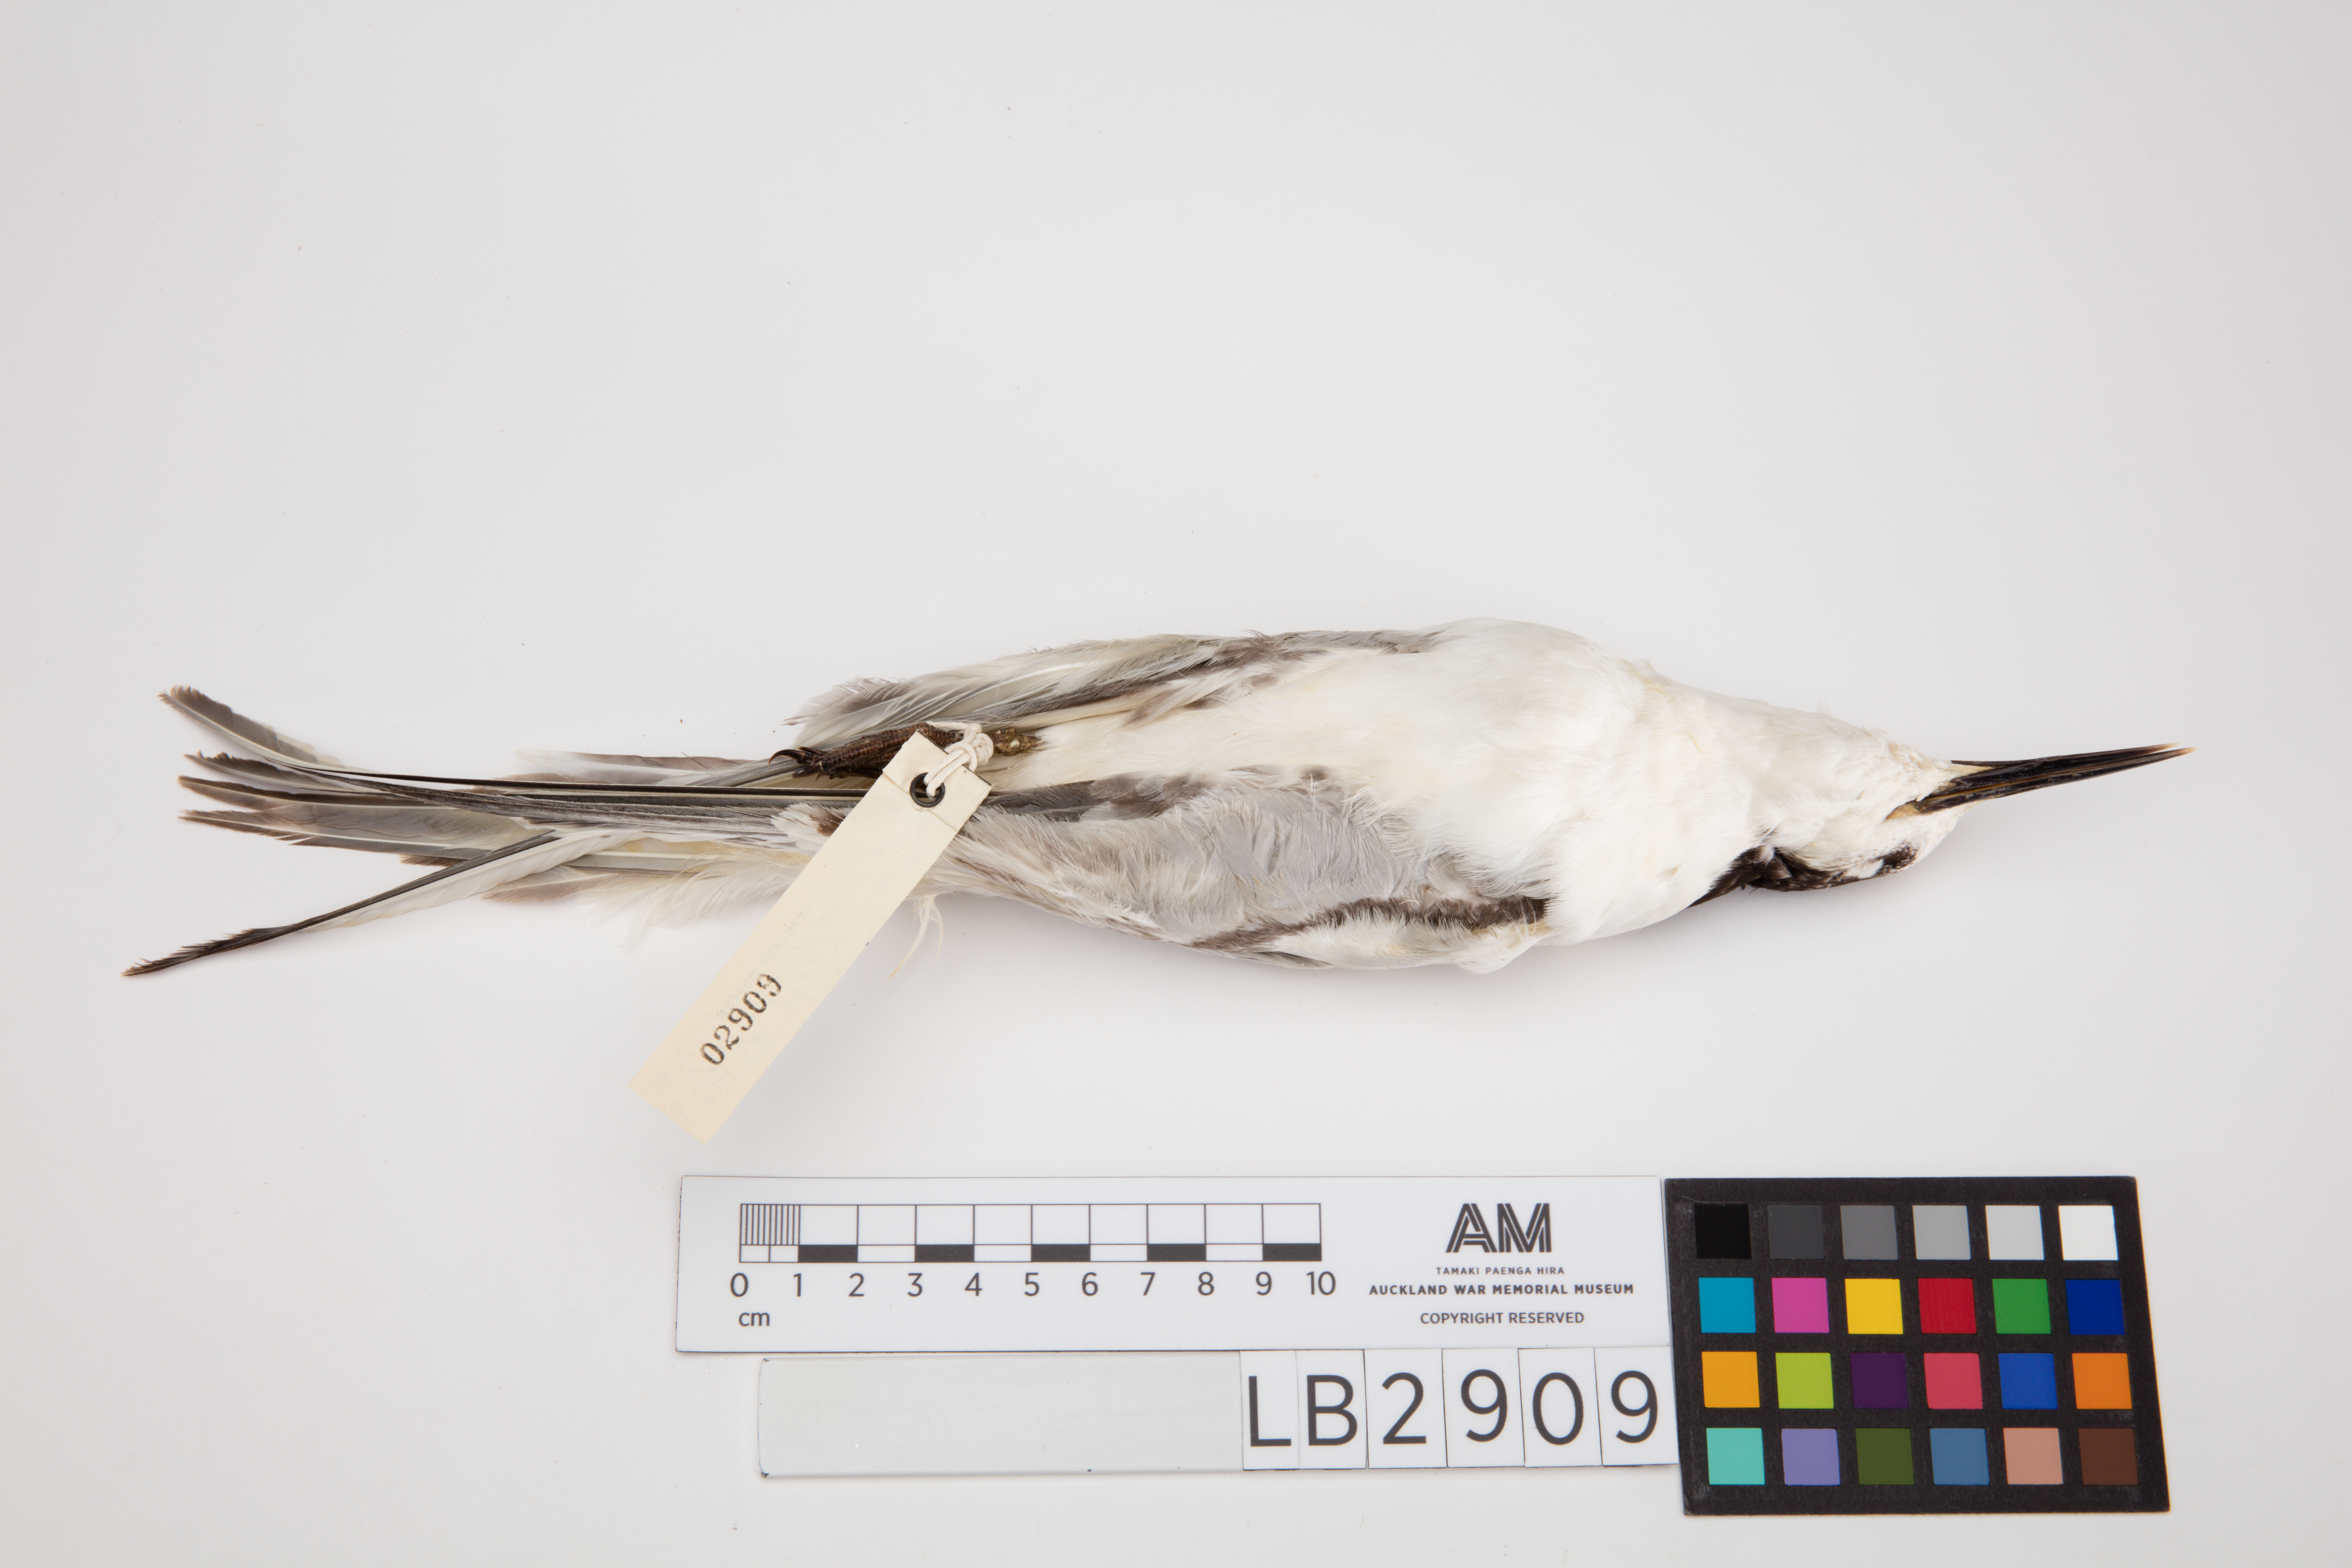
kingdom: Animalia
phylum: Chordata
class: Aves
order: Charadriiformes
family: Laridae
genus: Sterna
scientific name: Sterna striata
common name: White-fronted tern
